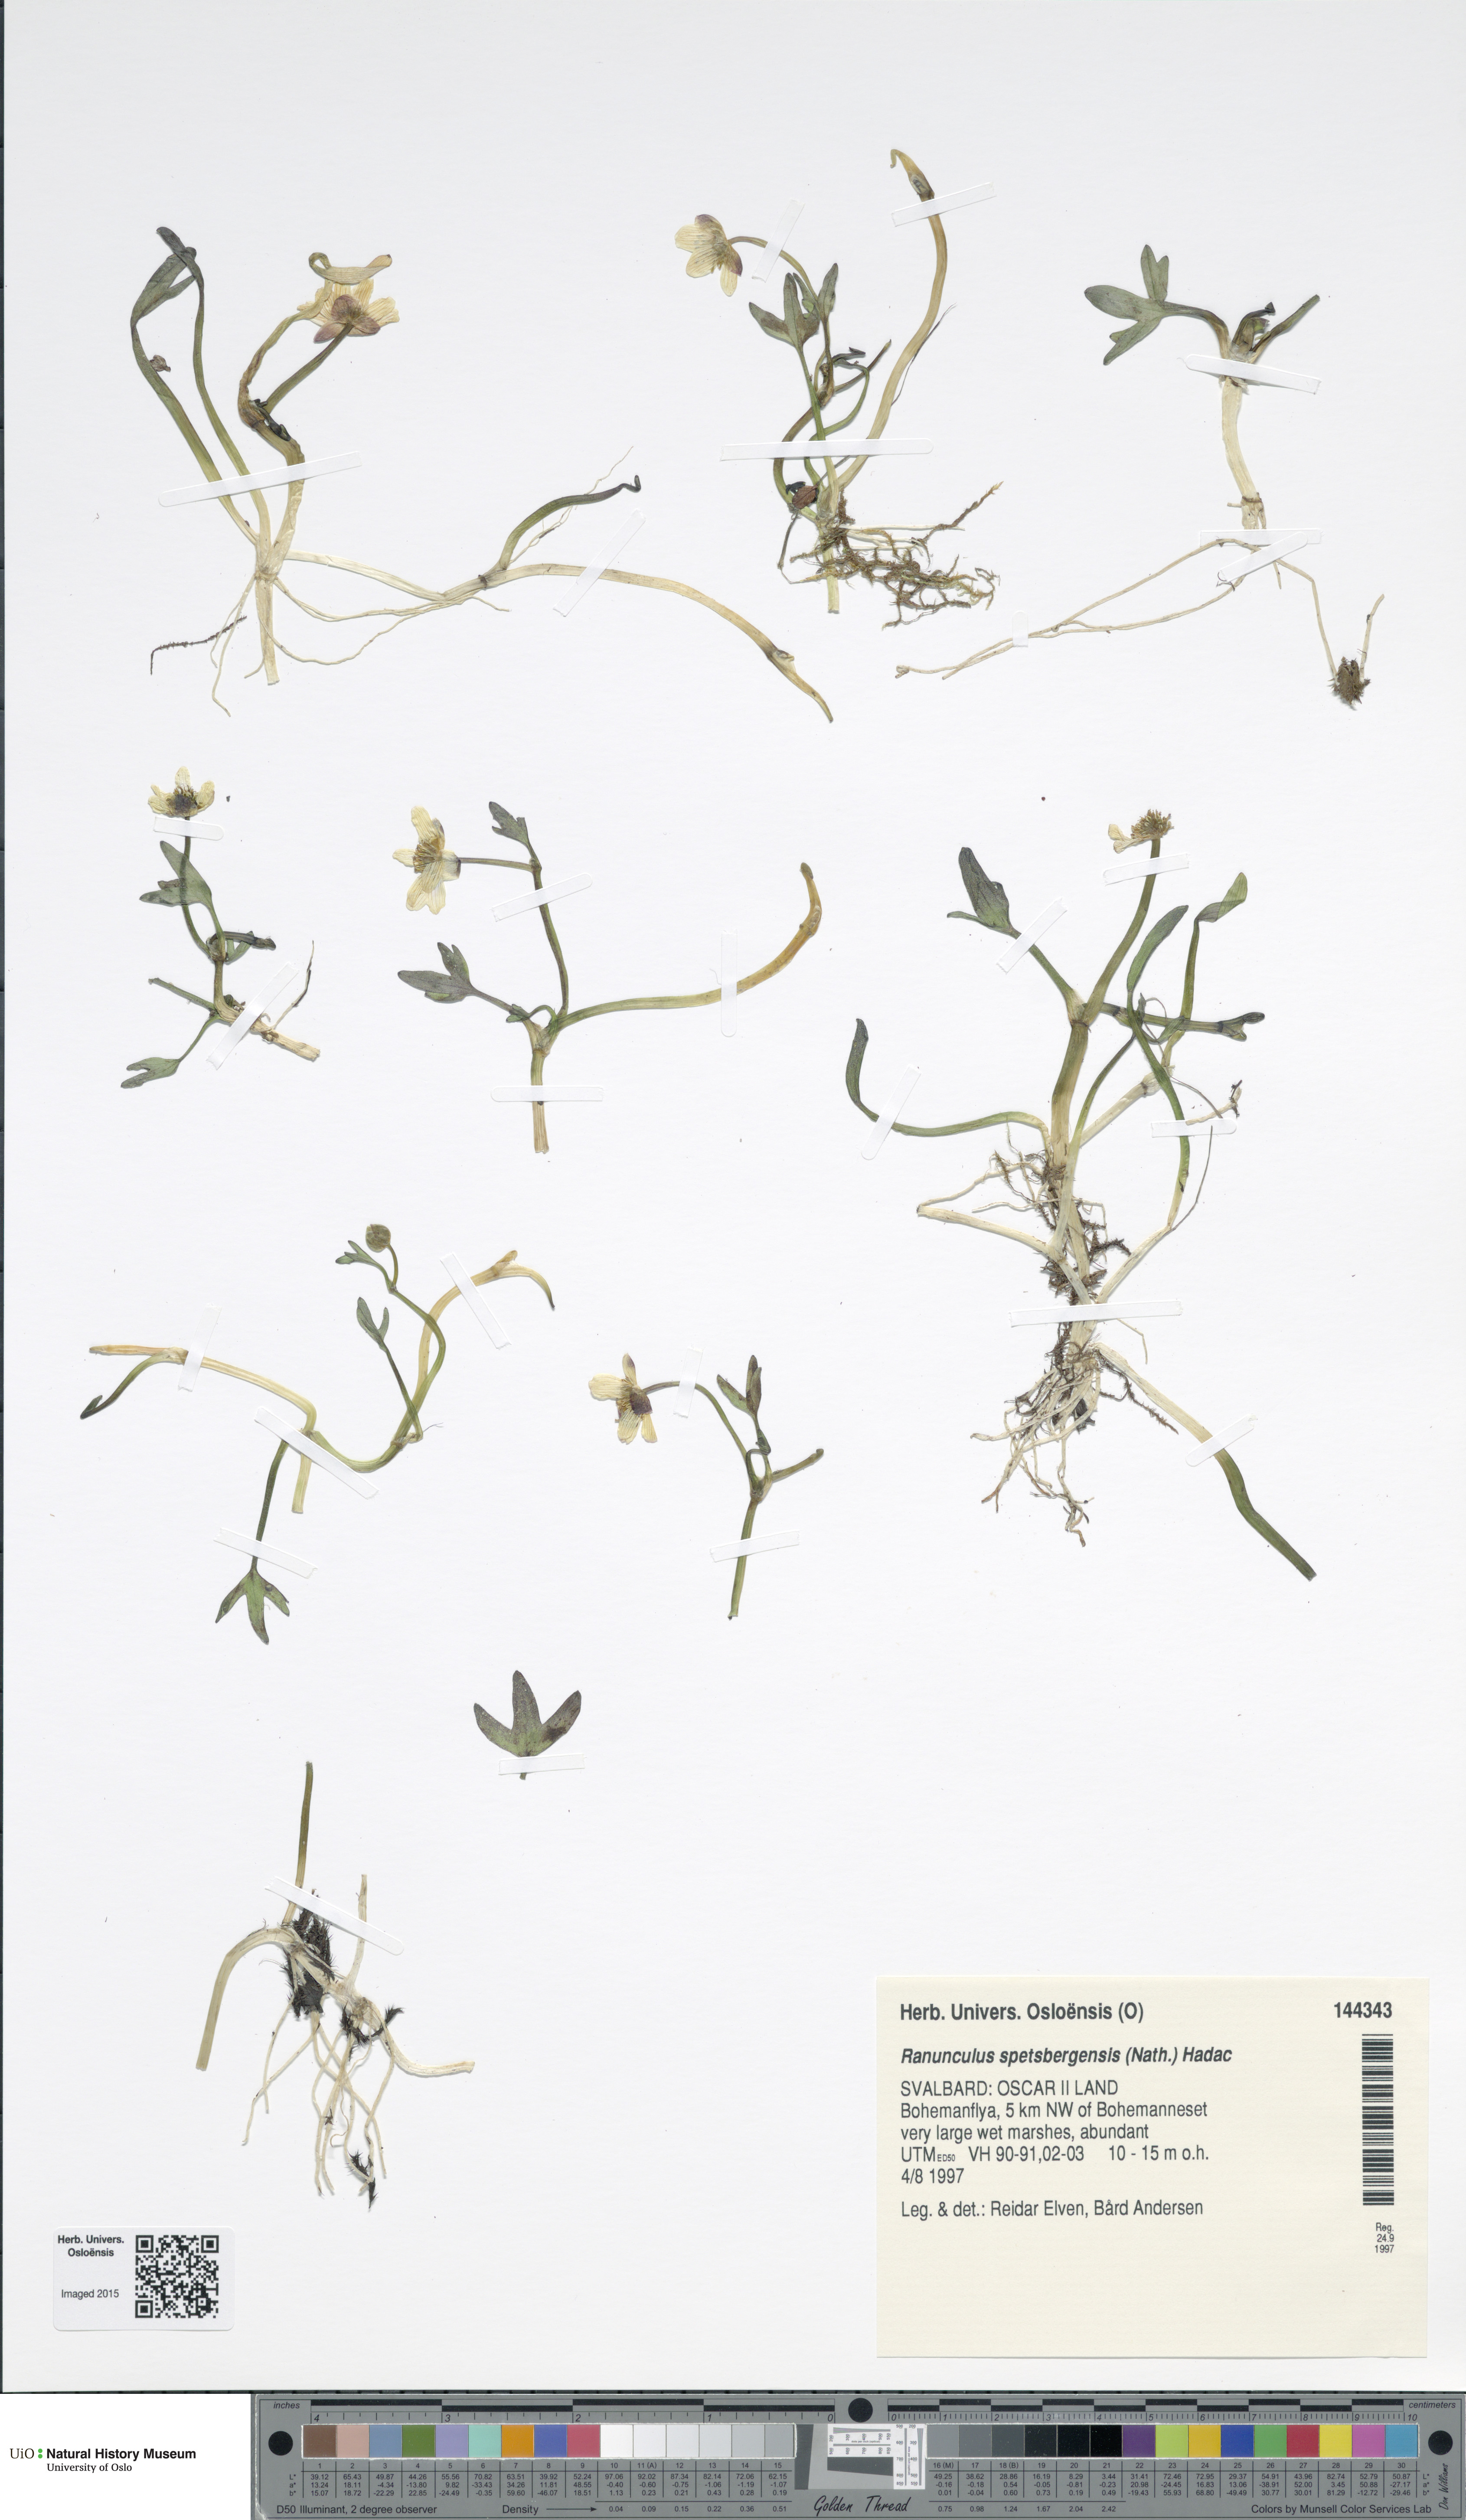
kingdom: Plantae
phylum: Tracheophyta
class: Magnoliopsida
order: Ranunculales
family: Ranunculaceae
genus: Coptidium
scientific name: Coptidium spitsbergense
